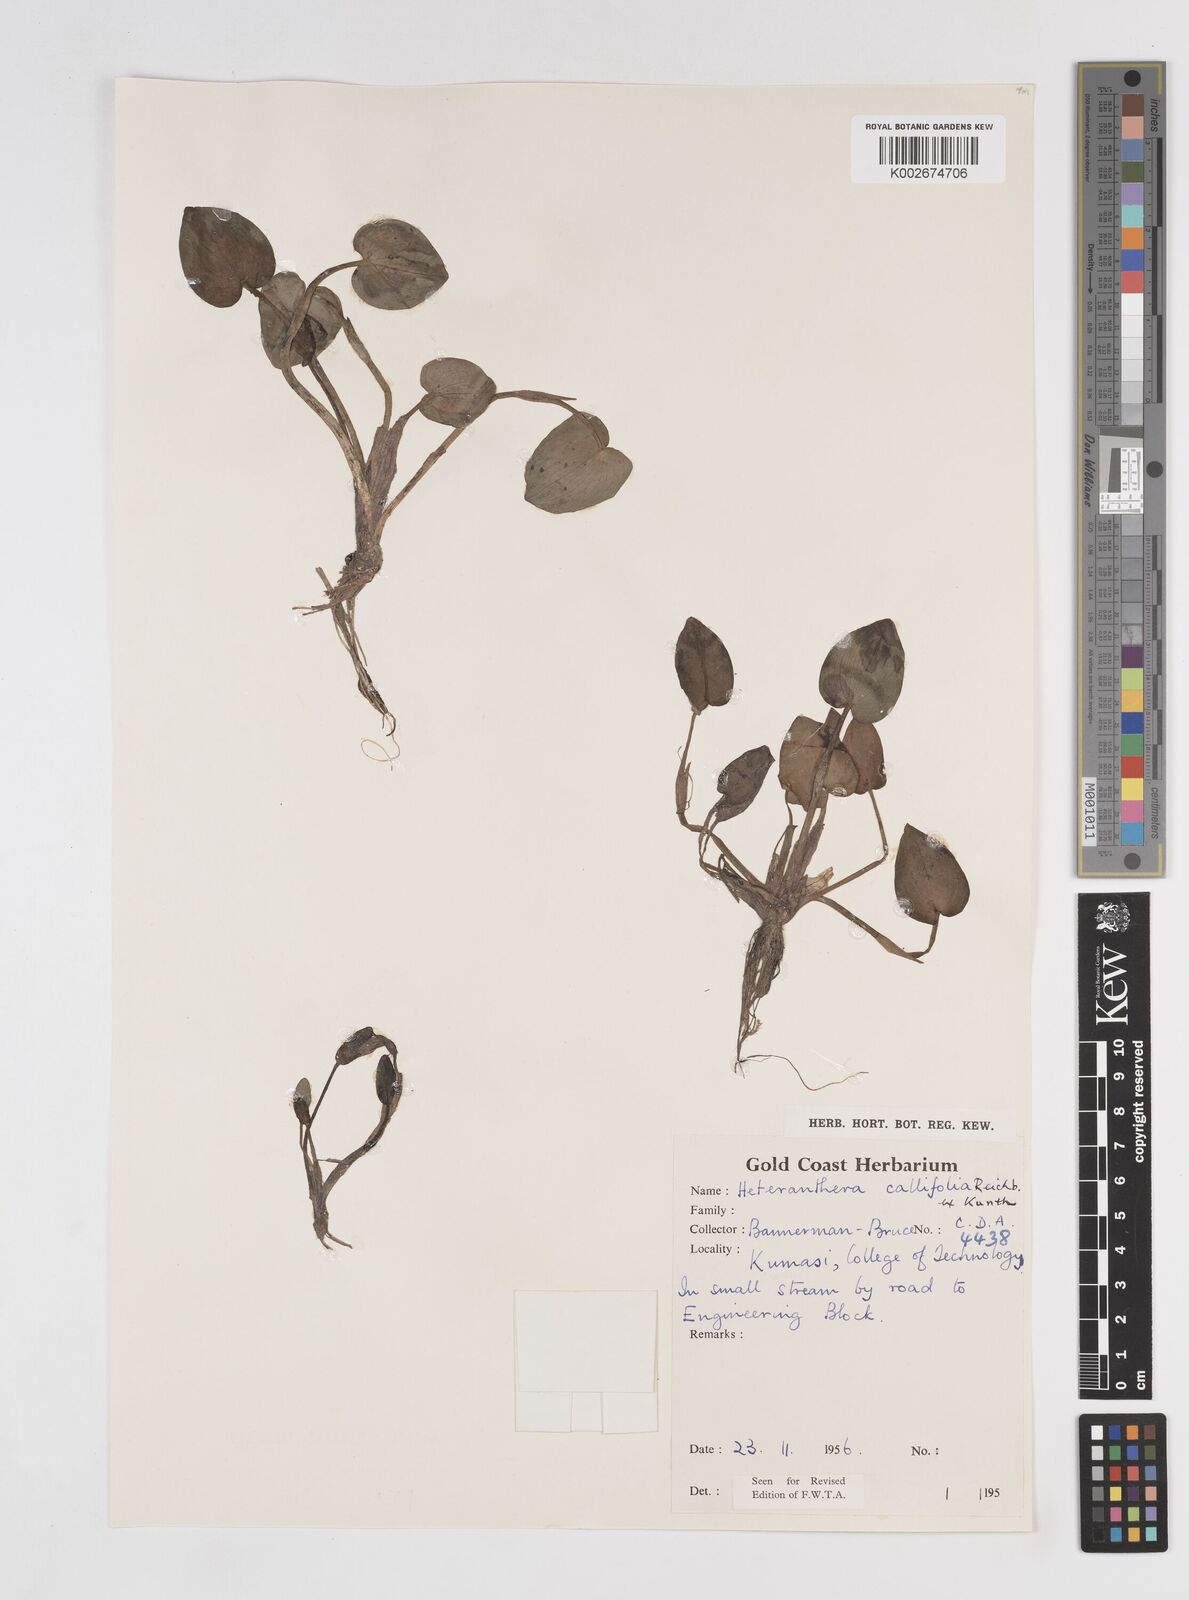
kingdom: Plantae
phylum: Tracheophyta
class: Liliopsida
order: Commelinales
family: Pontederiaceae
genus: Heteranthera
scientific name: Heteranthera callifolia
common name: Mud plantain
